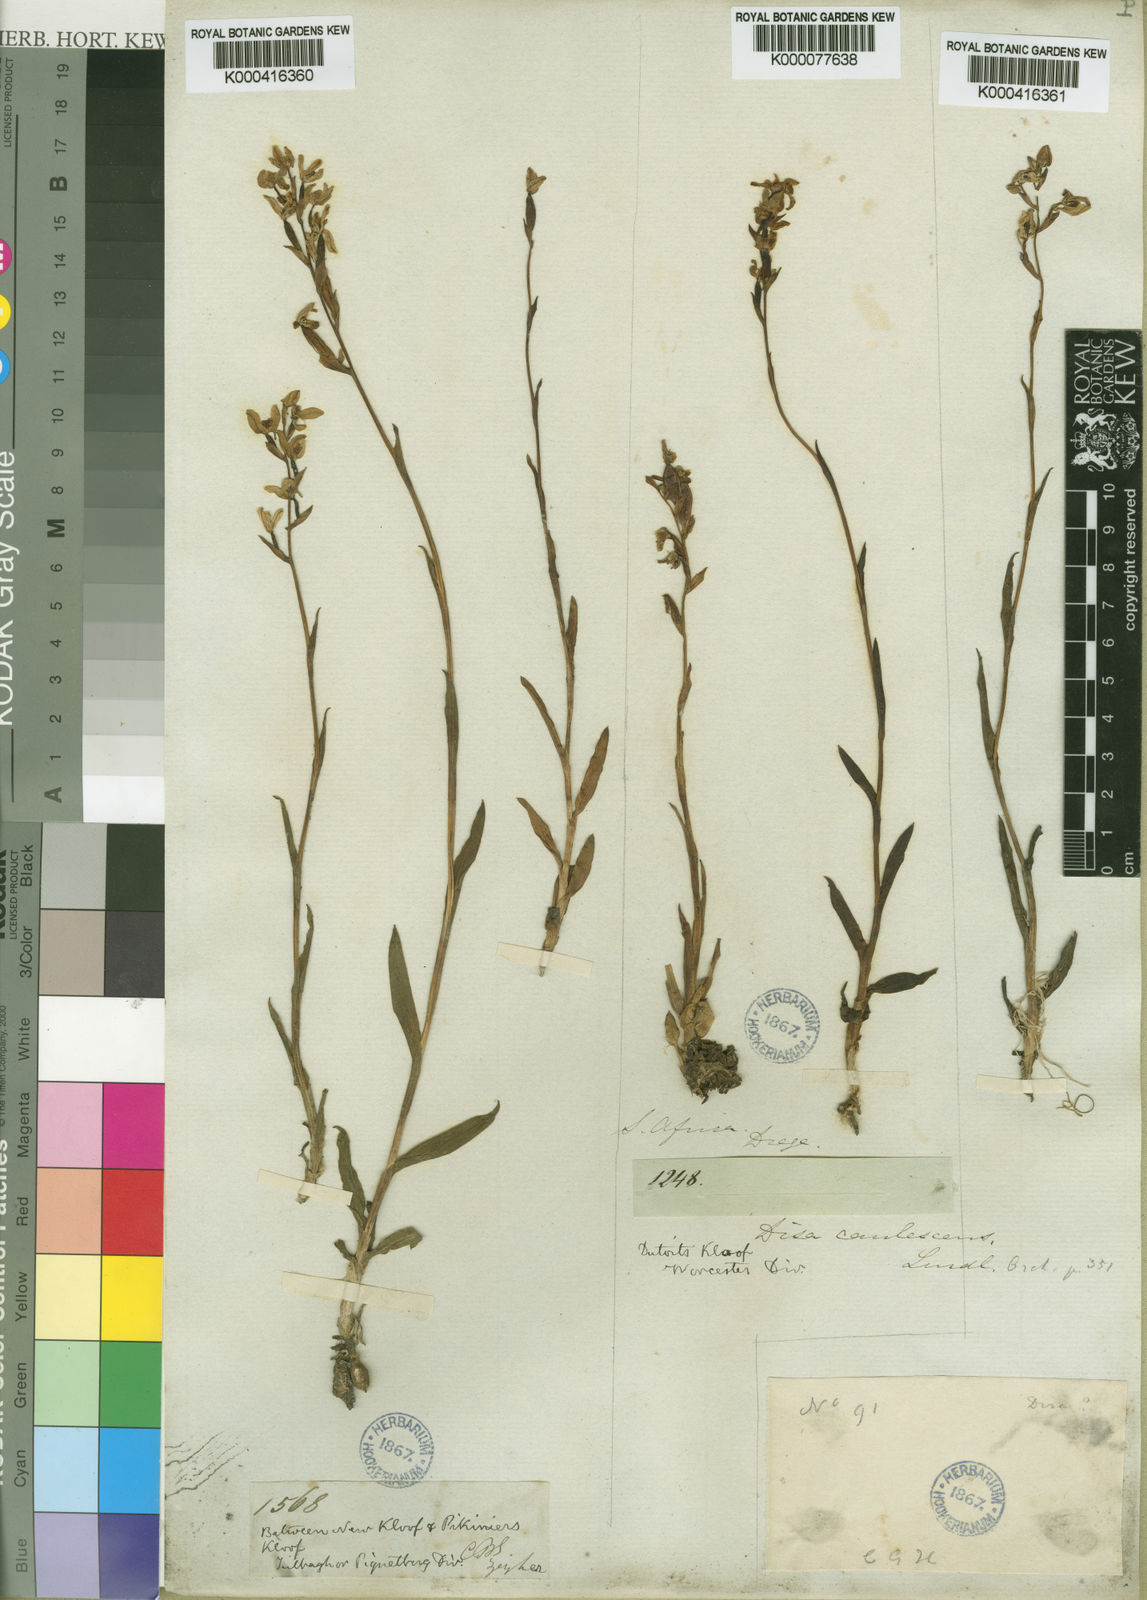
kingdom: Plantae
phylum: Tracheophyta
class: Liliopsida
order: Asparagales
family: Orchidaceae
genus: Disa
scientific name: Disa caulescens
